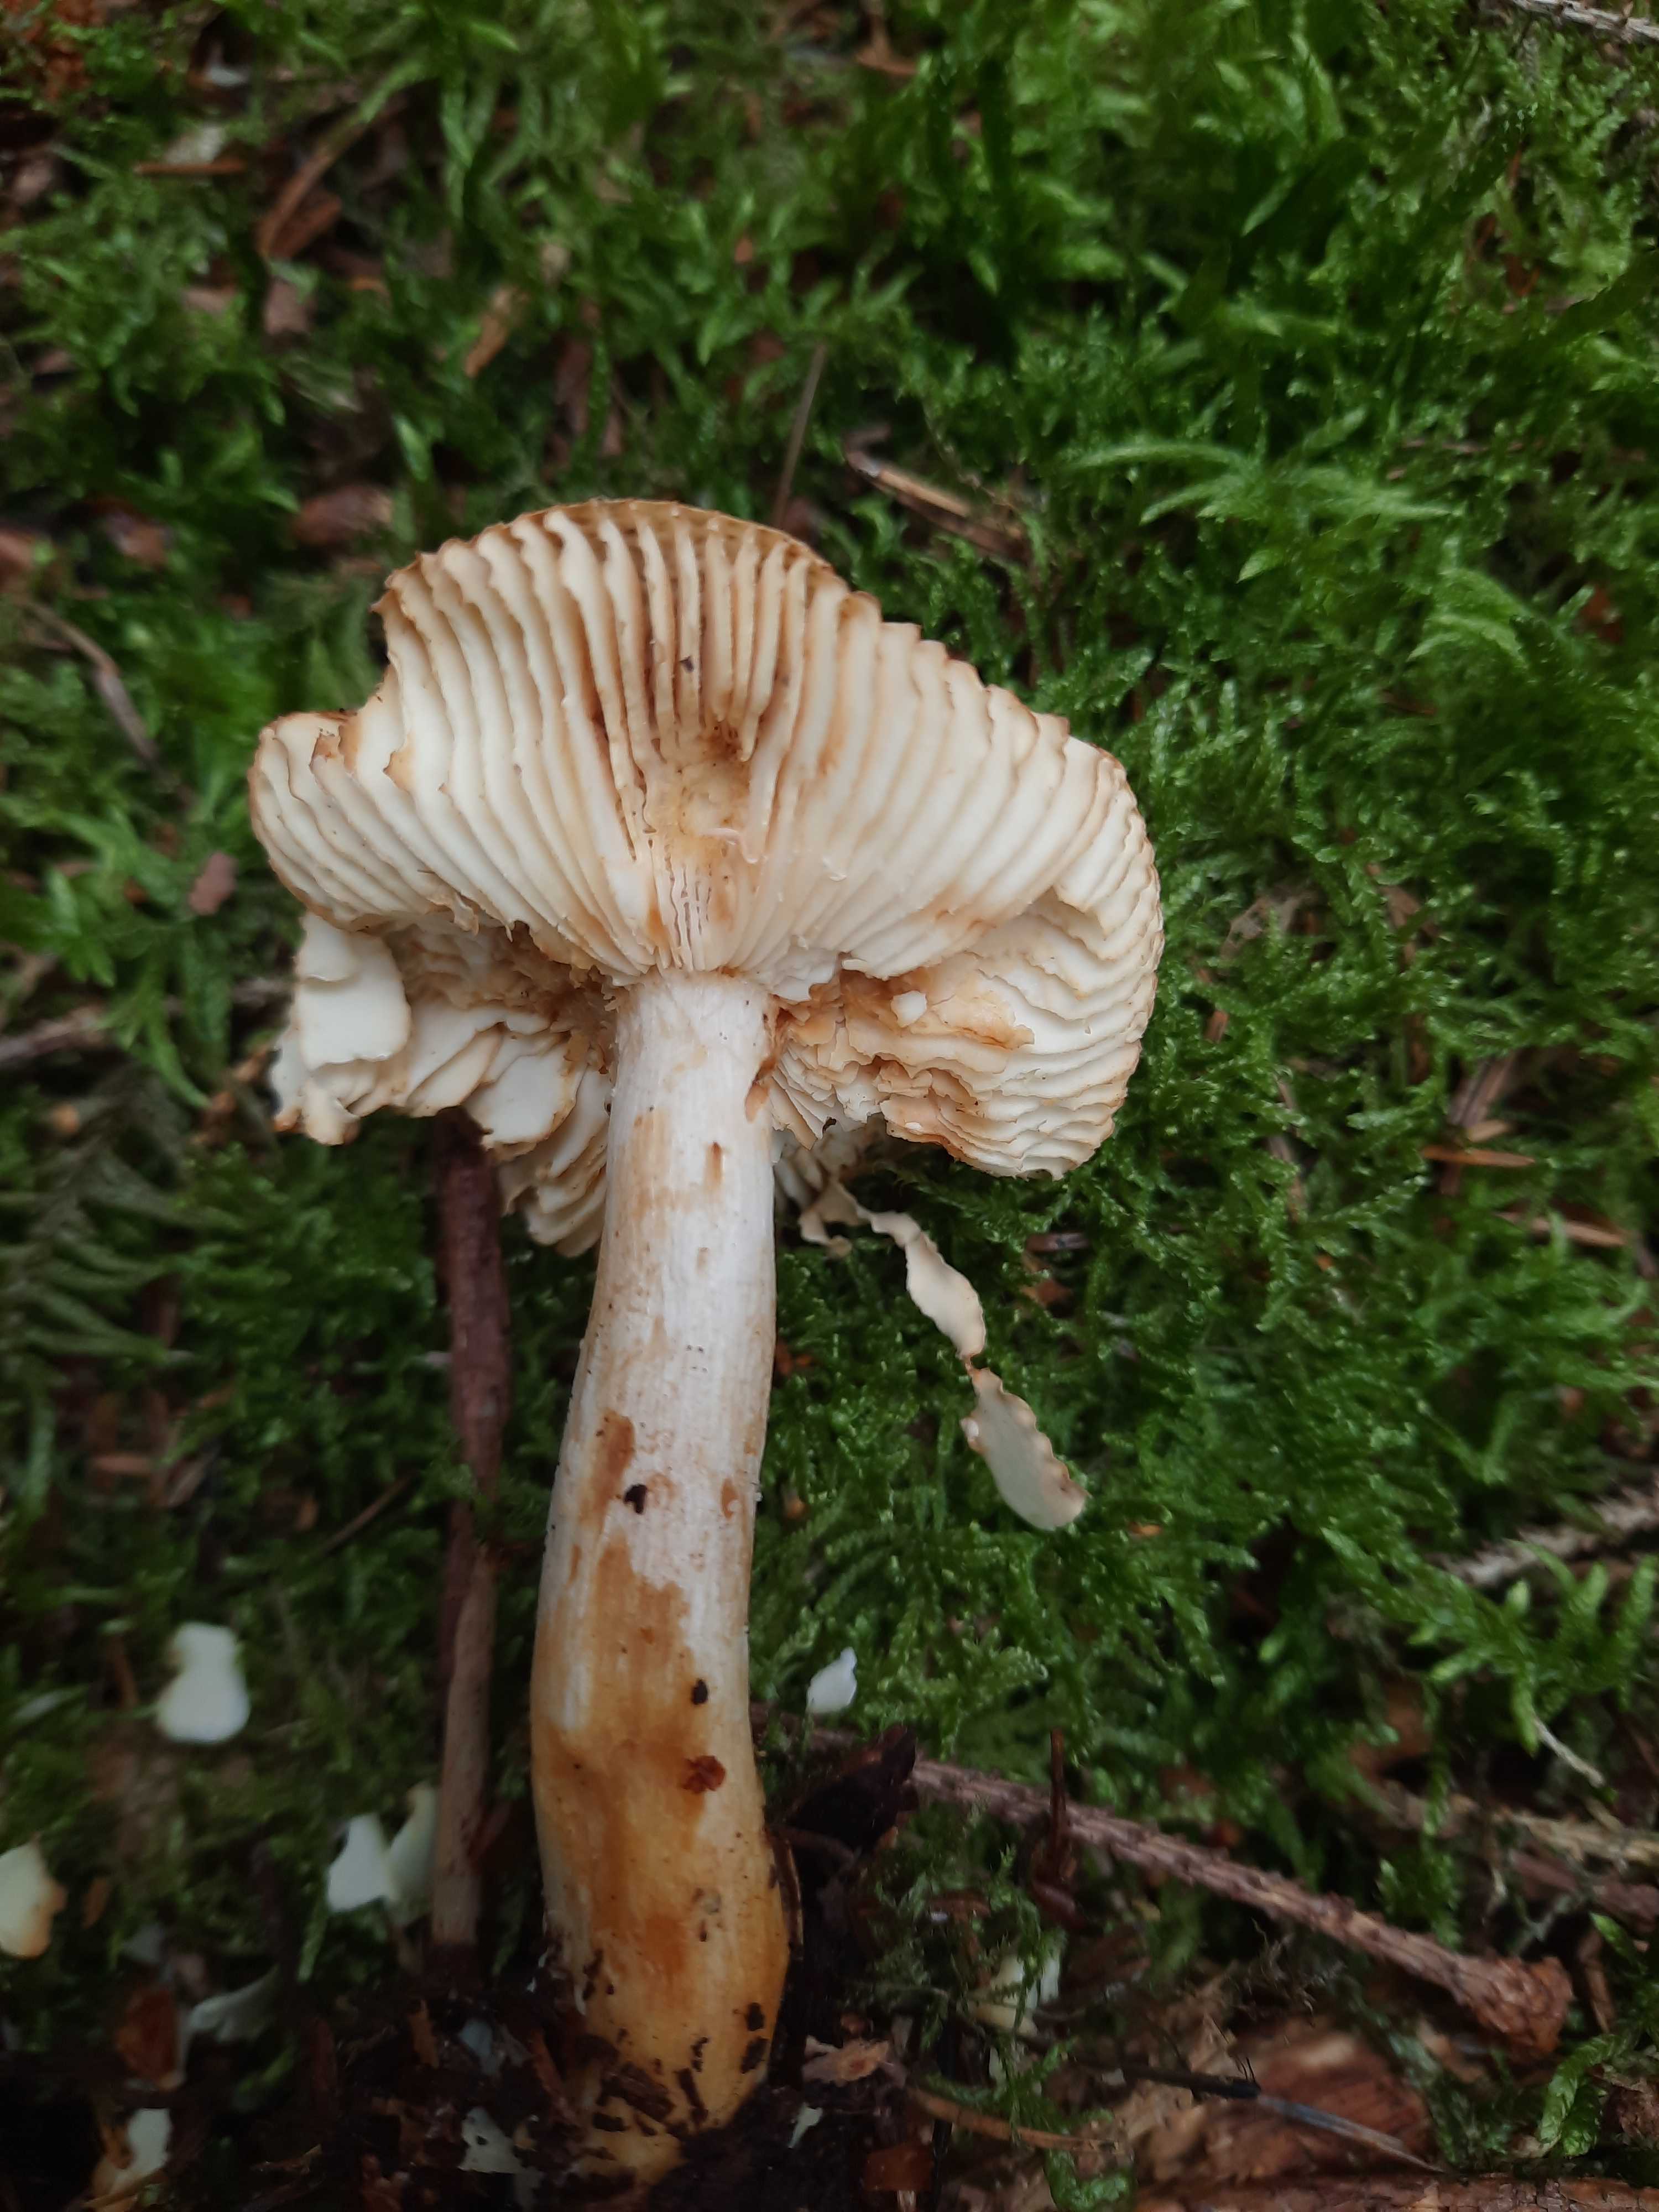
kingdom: Fungi
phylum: Basidiomycota
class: Agaricomycetes
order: Russulales
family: Russulaceae
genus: Russula
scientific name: Russula
